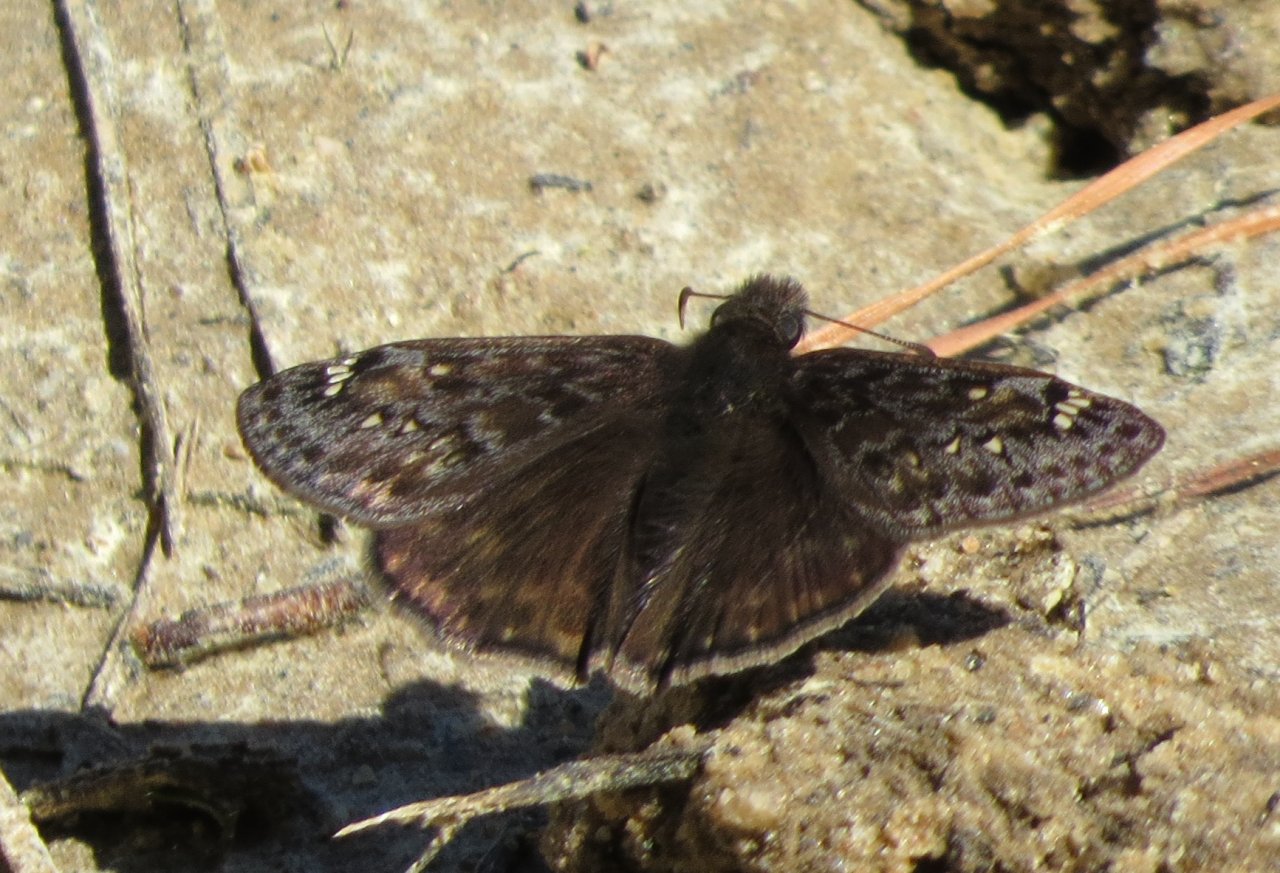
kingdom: Animalia
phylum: Arthropoda
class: Insecta
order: Lepidoptera
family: Hesperiidae
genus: Gesta
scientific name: Gesta
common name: Juvenal's Duskywing
